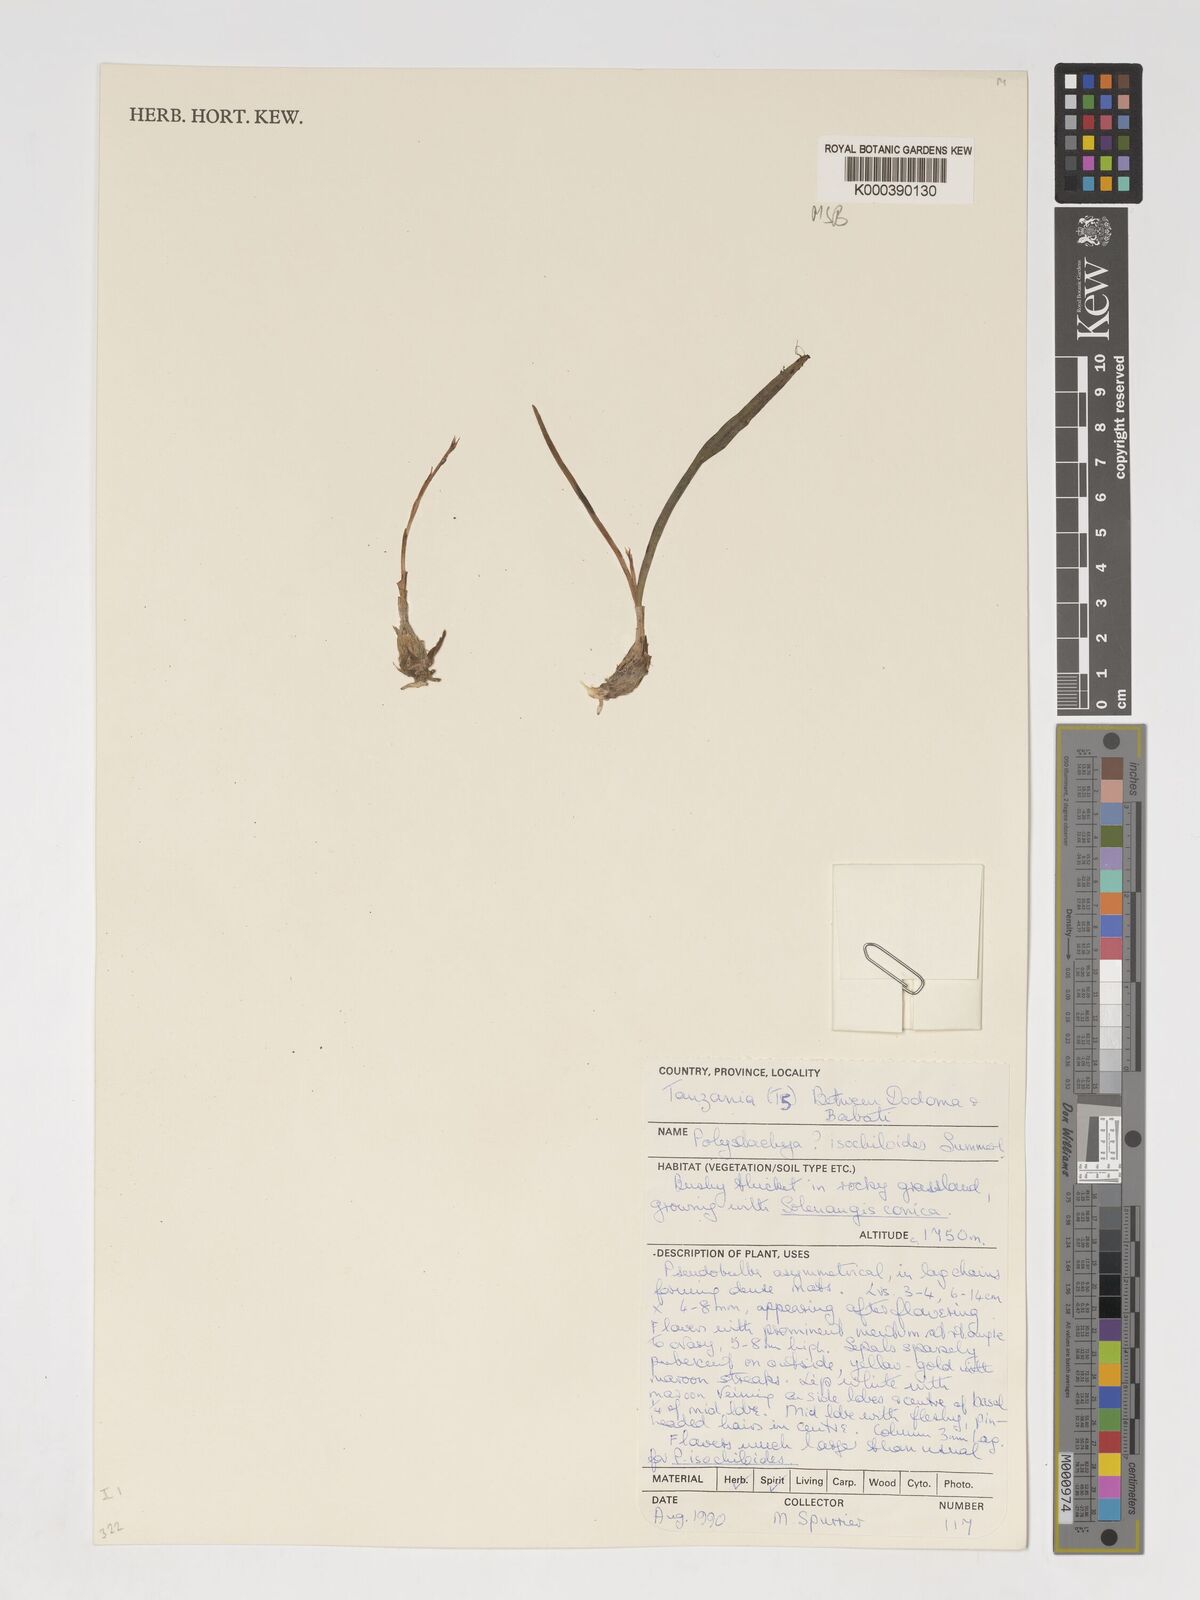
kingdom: Plantae
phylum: Tracheophyta
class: Liliopsida
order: Asparagales
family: Orchidaceae
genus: Polystachya
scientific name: Polystachya isochiloides
